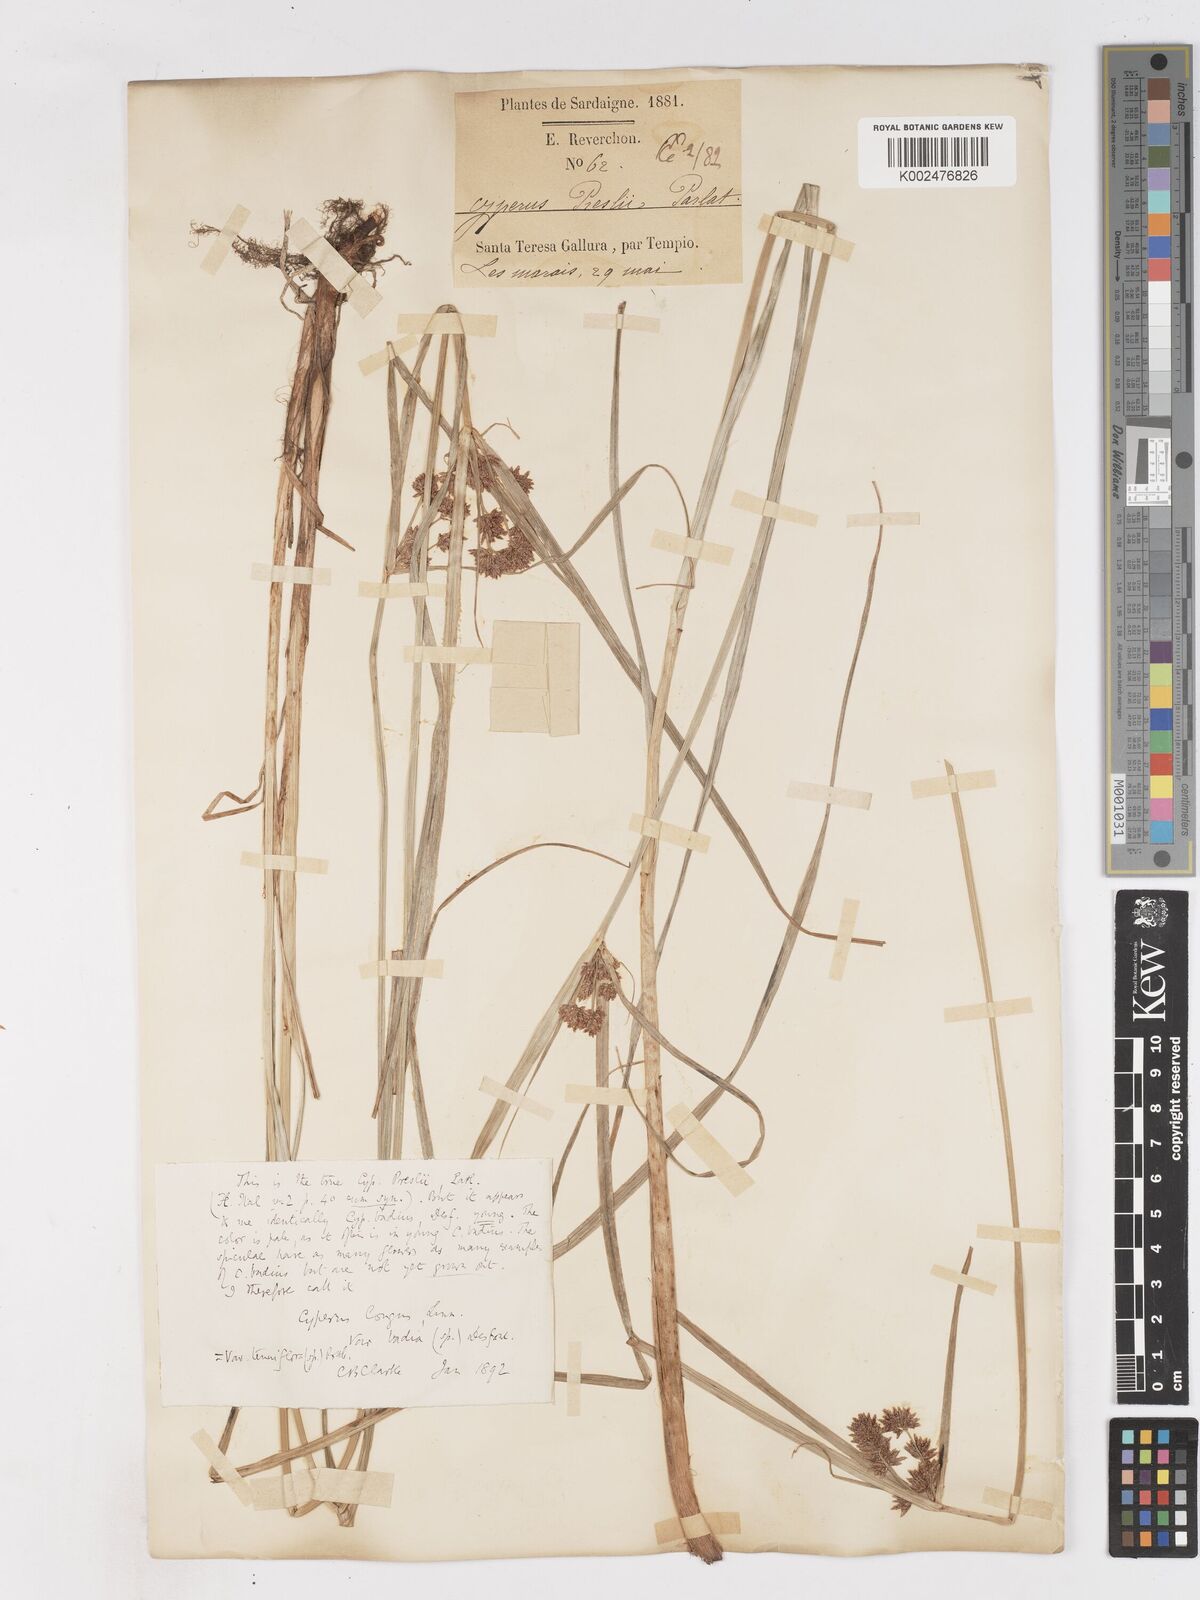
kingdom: Plantae
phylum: Tracheophyta
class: Liliopsida
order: Poales
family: Cyperaceae
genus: Cyperus
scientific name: Cyperus longus
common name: Galingale
